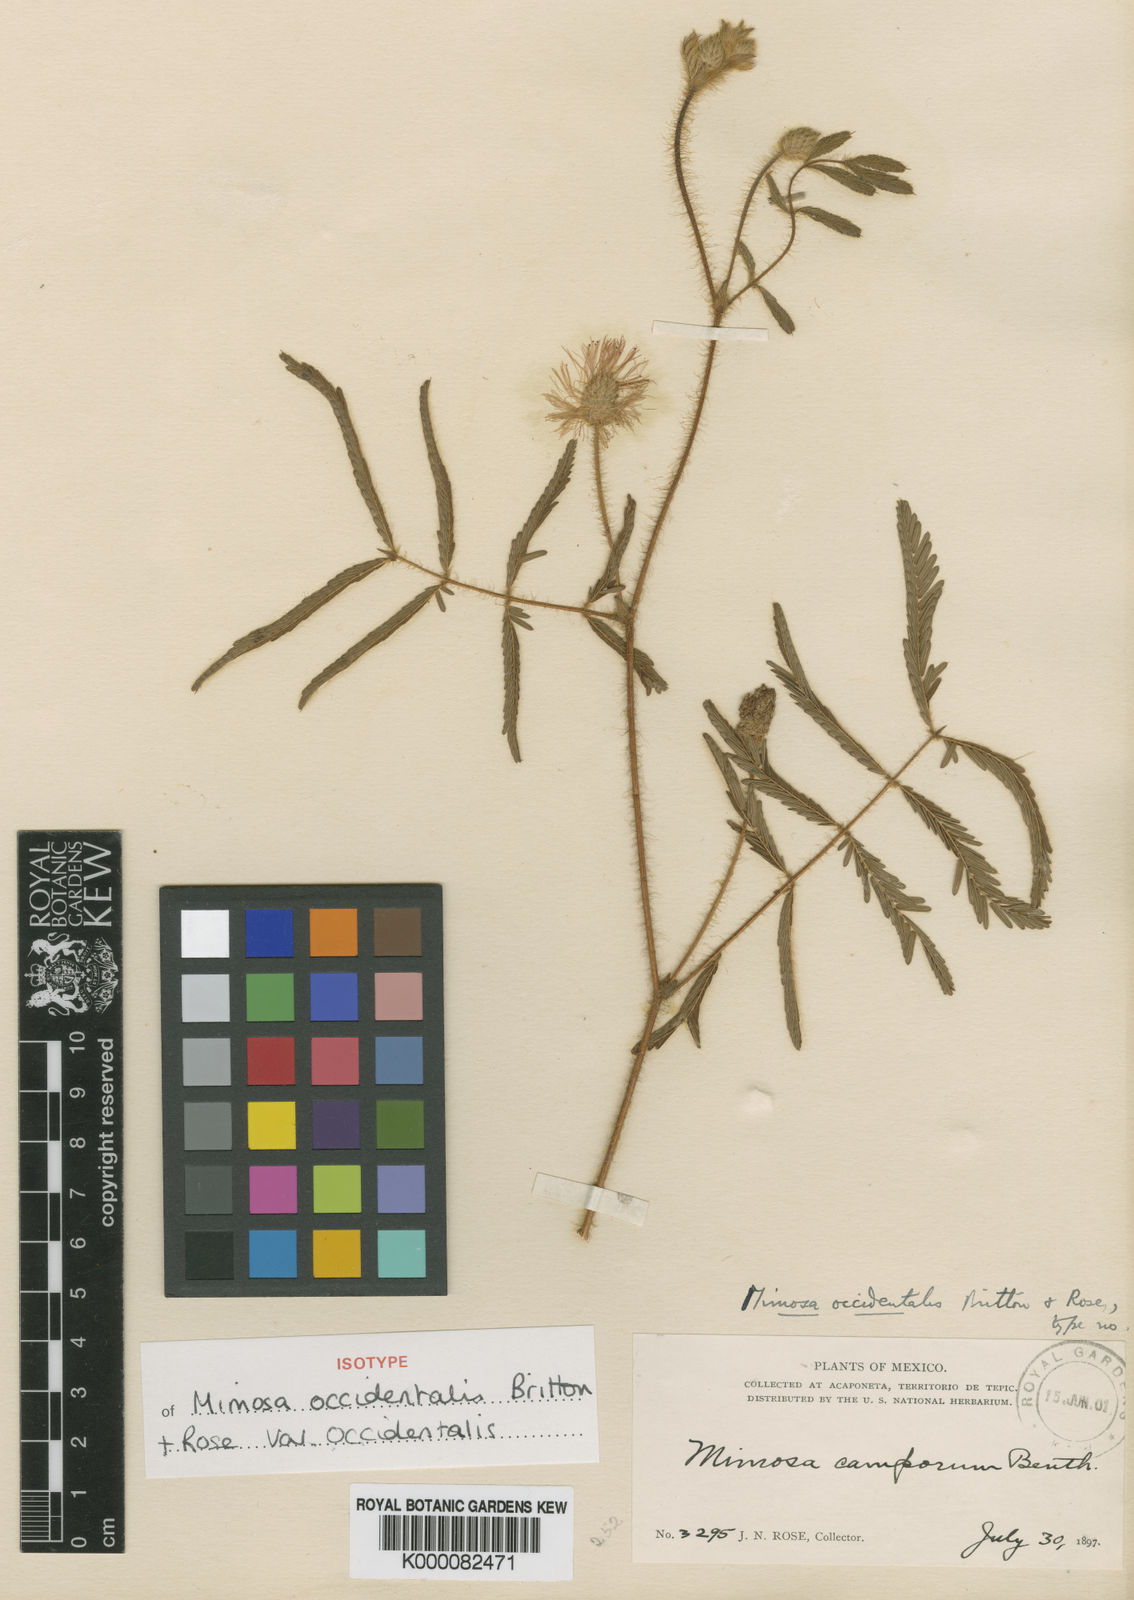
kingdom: Plantae
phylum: Tracheophyta
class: Magnoliopsida
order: Fabales
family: Fabaceae
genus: Mimosa
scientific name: Mimosa occidentalis
